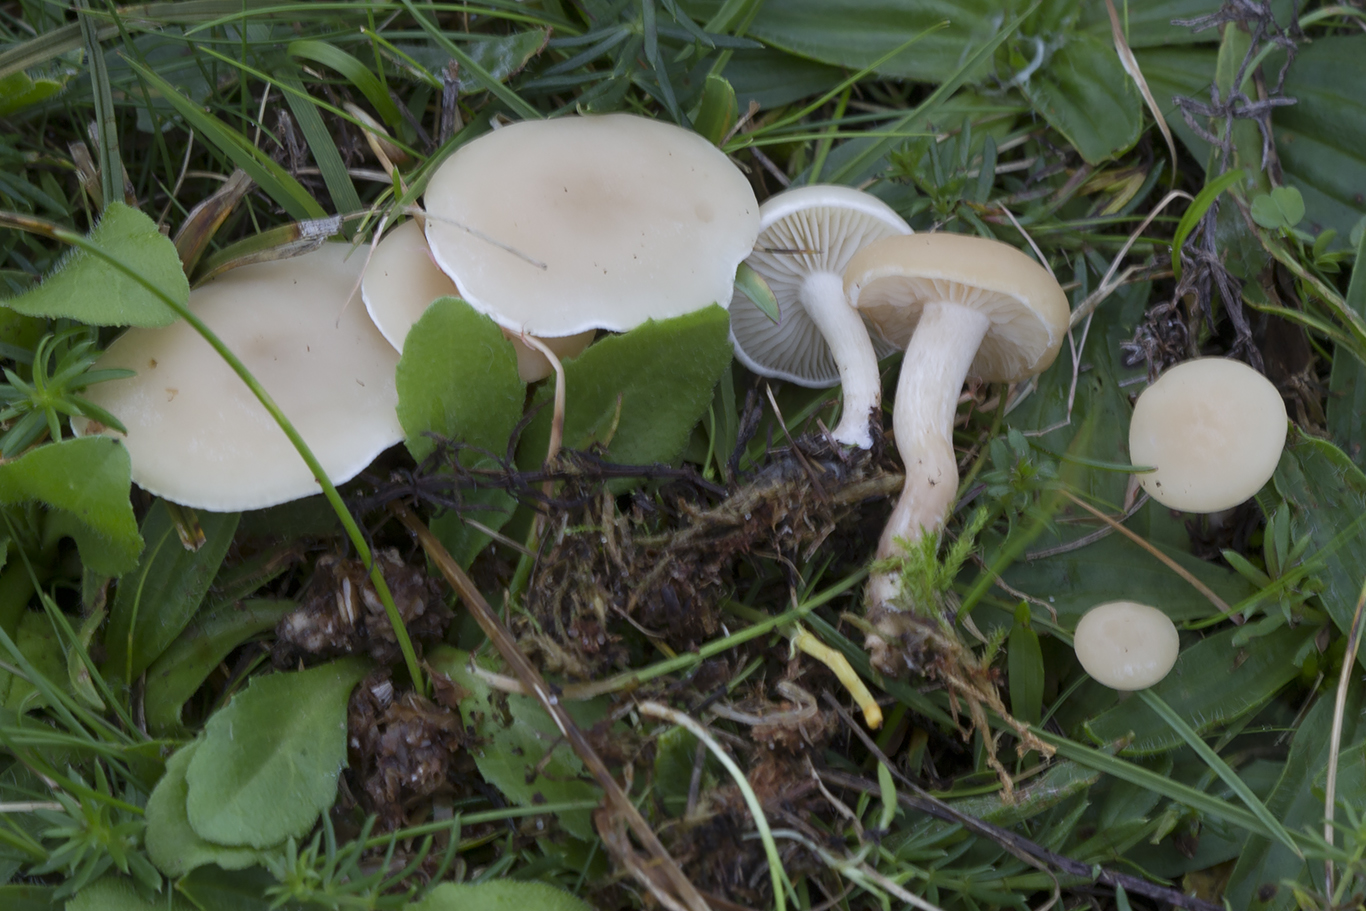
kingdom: Fungi
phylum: Basidiomycota
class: Agaricomycetes
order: Agaricales
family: Tricholomataceae
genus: Clitocybe
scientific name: Clitocybe agrestis
